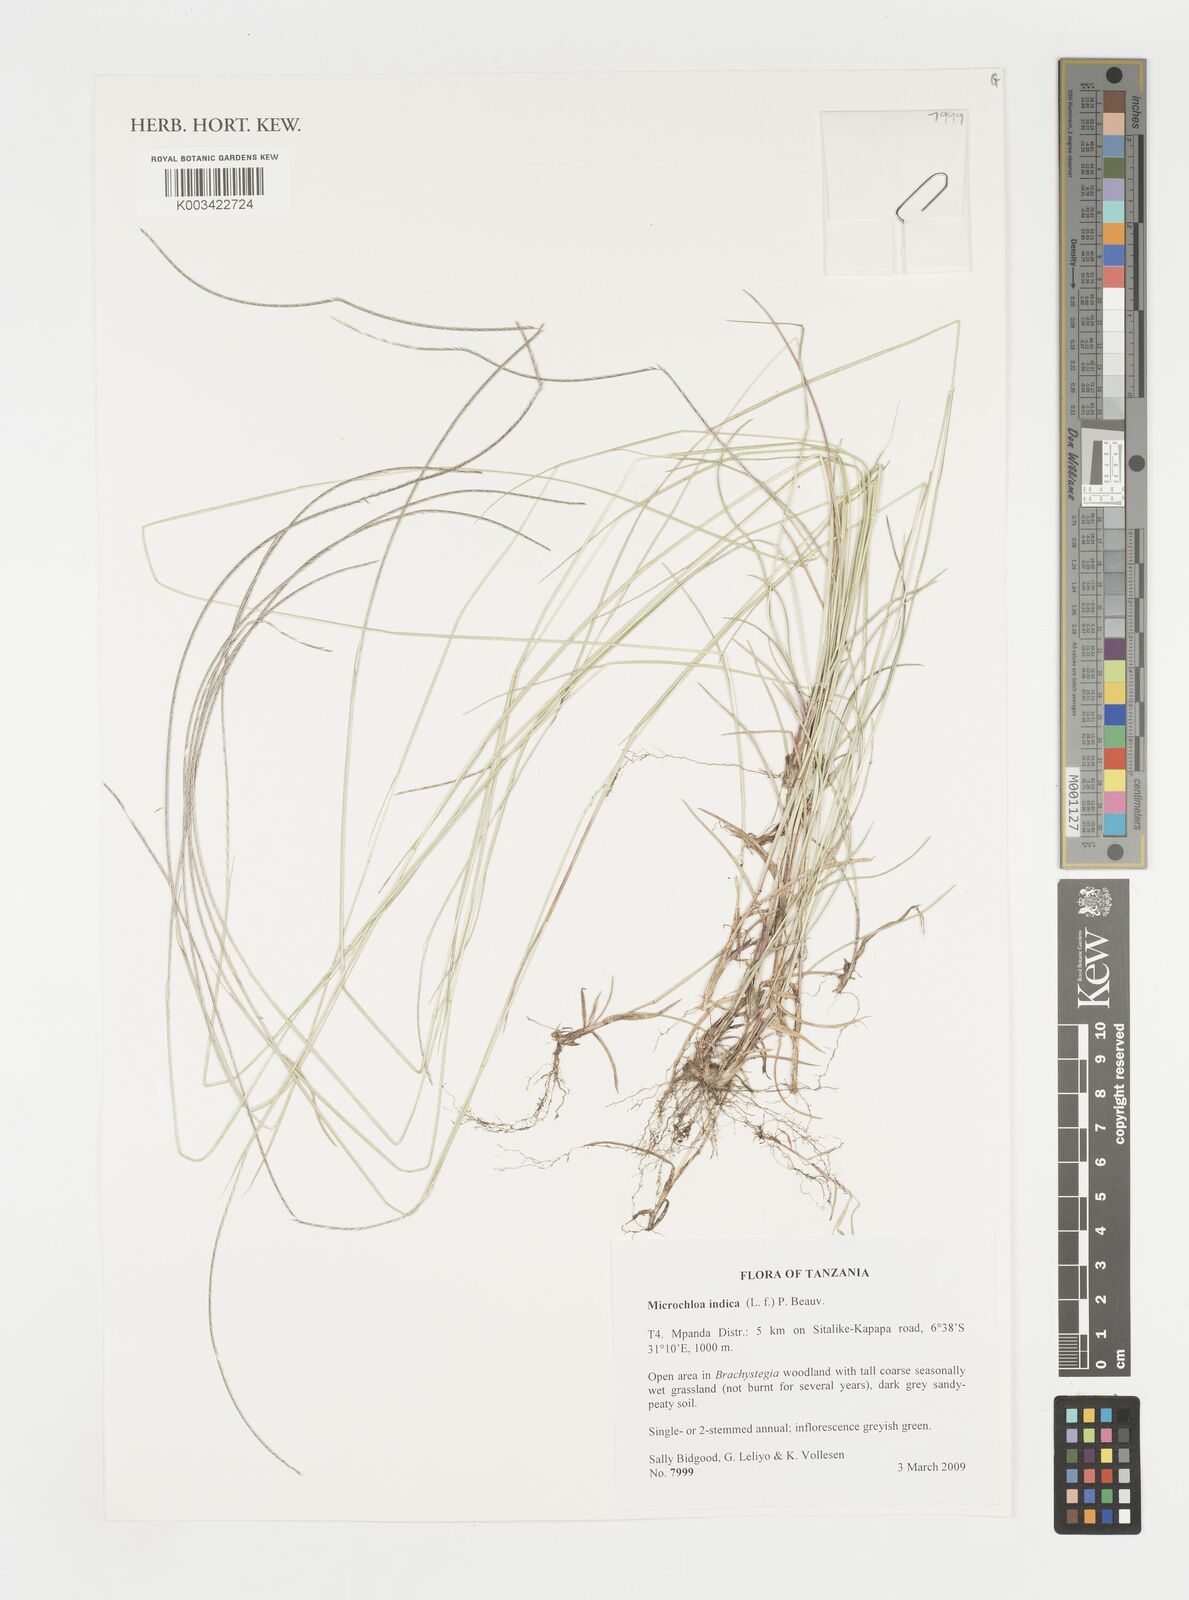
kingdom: Plantae
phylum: Tracheophyta
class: Liliopsida
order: Poales
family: Poaceae
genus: Microchloa
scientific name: Microchloa indica
